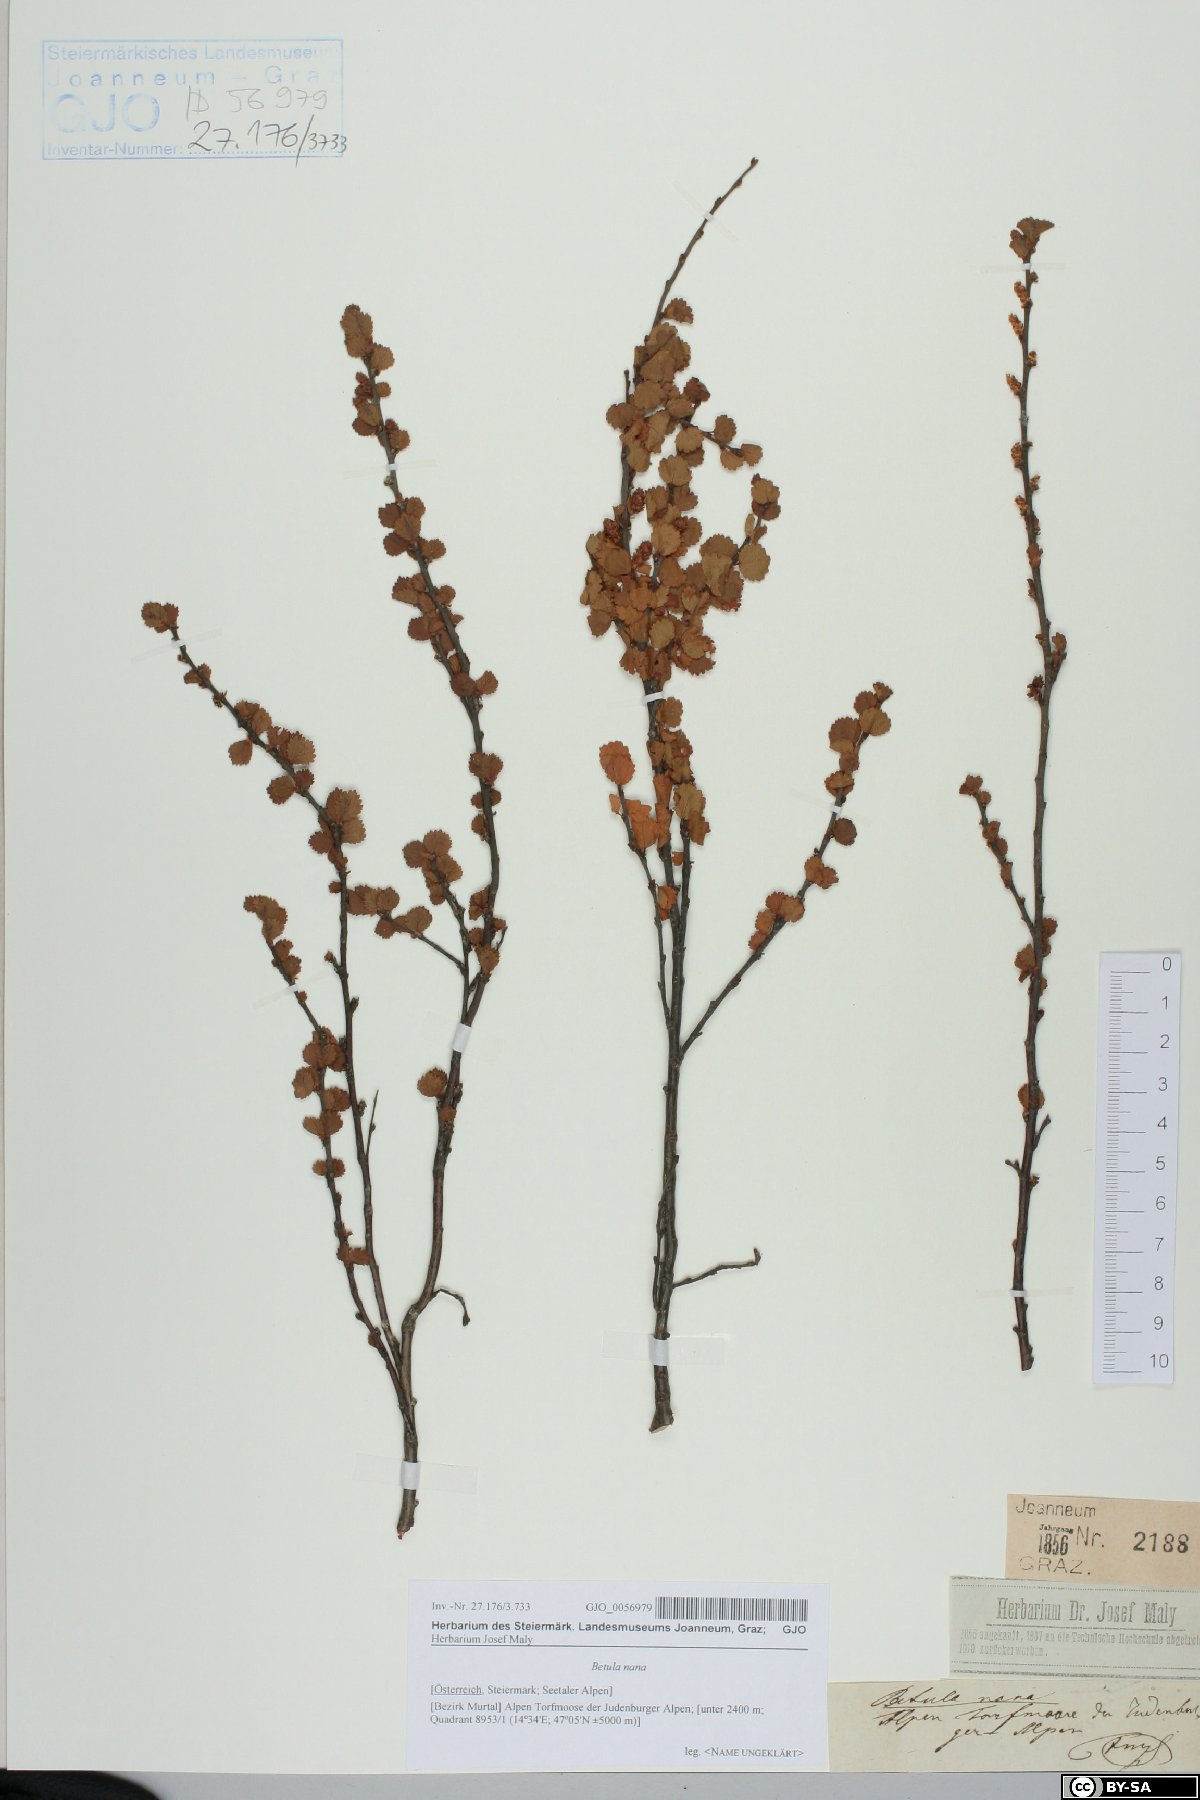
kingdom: Plantae
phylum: Tracheophyta
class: Magnoliopsida
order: Fagales
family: Betulaceae
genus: Betula
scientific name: Betula nana
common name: Arctic dwarf birch
